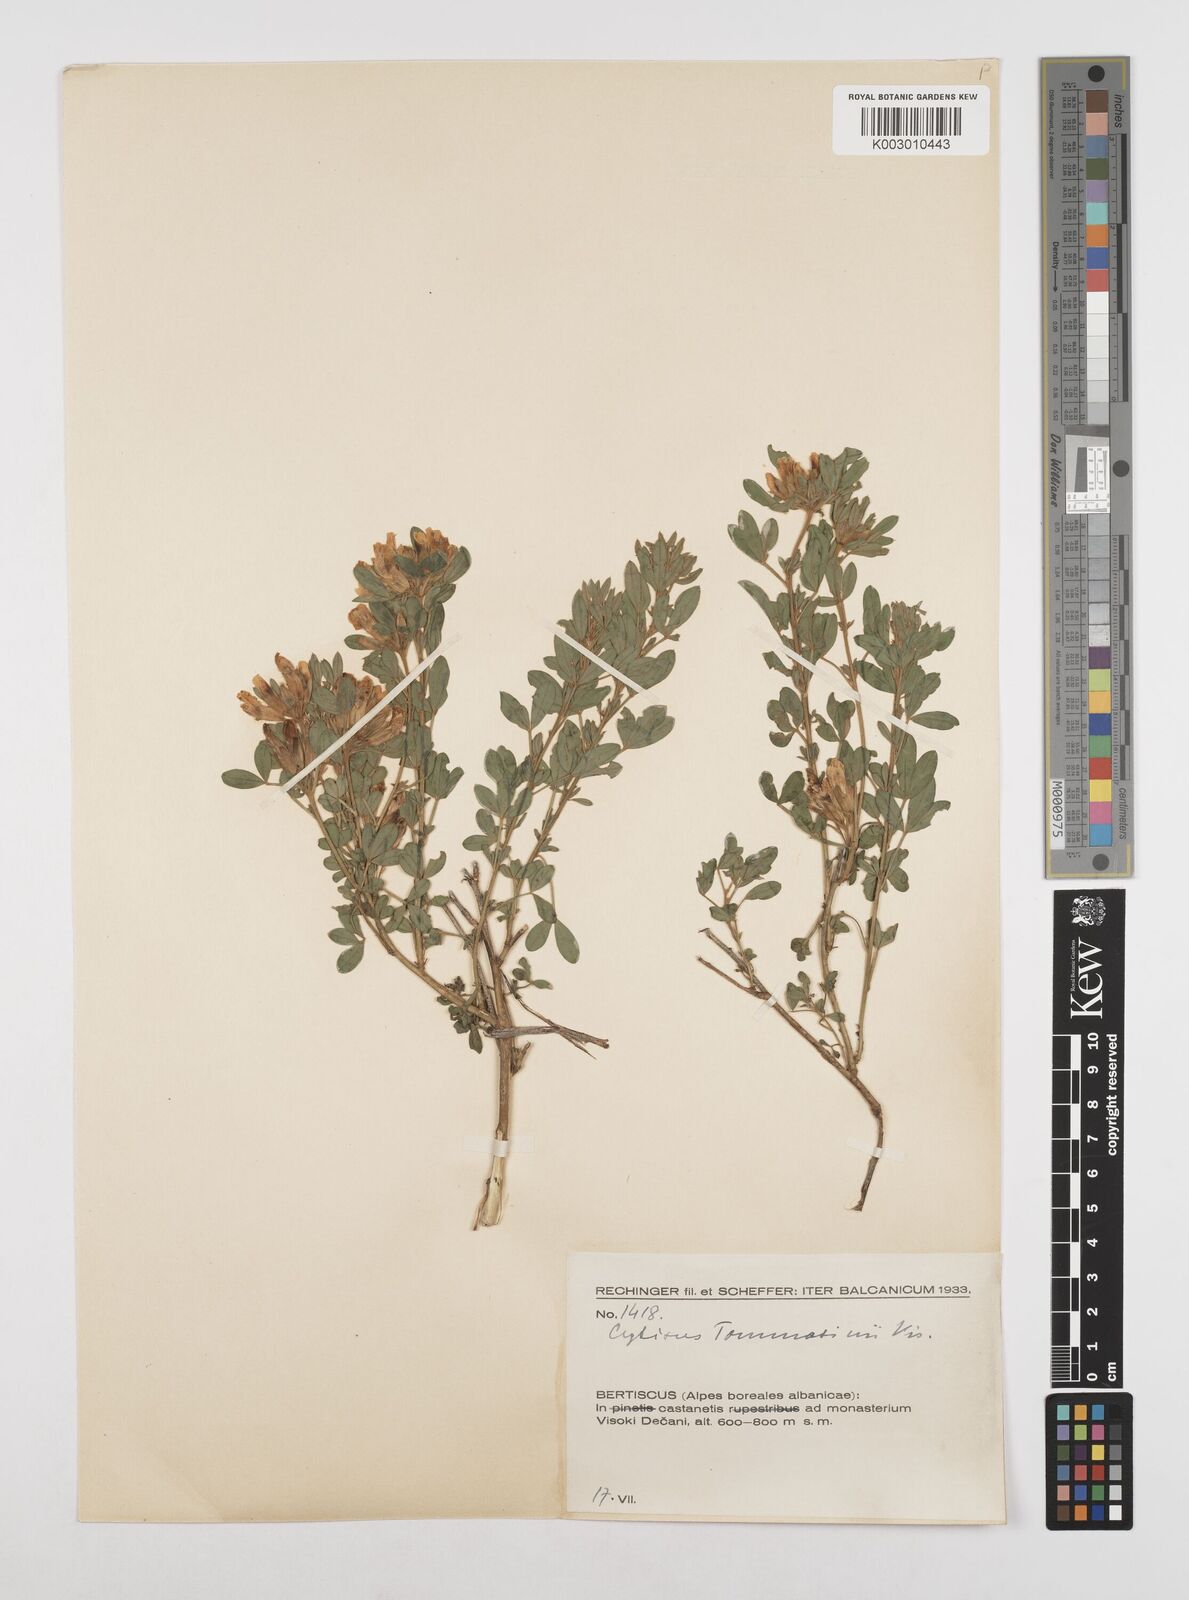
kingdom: Plantae
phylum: Tracheophyta
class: Magnoliopsida
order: Fabales
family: Fabaceae
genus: Chamaecytisus
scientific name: Chamaecytisus tommasinii
